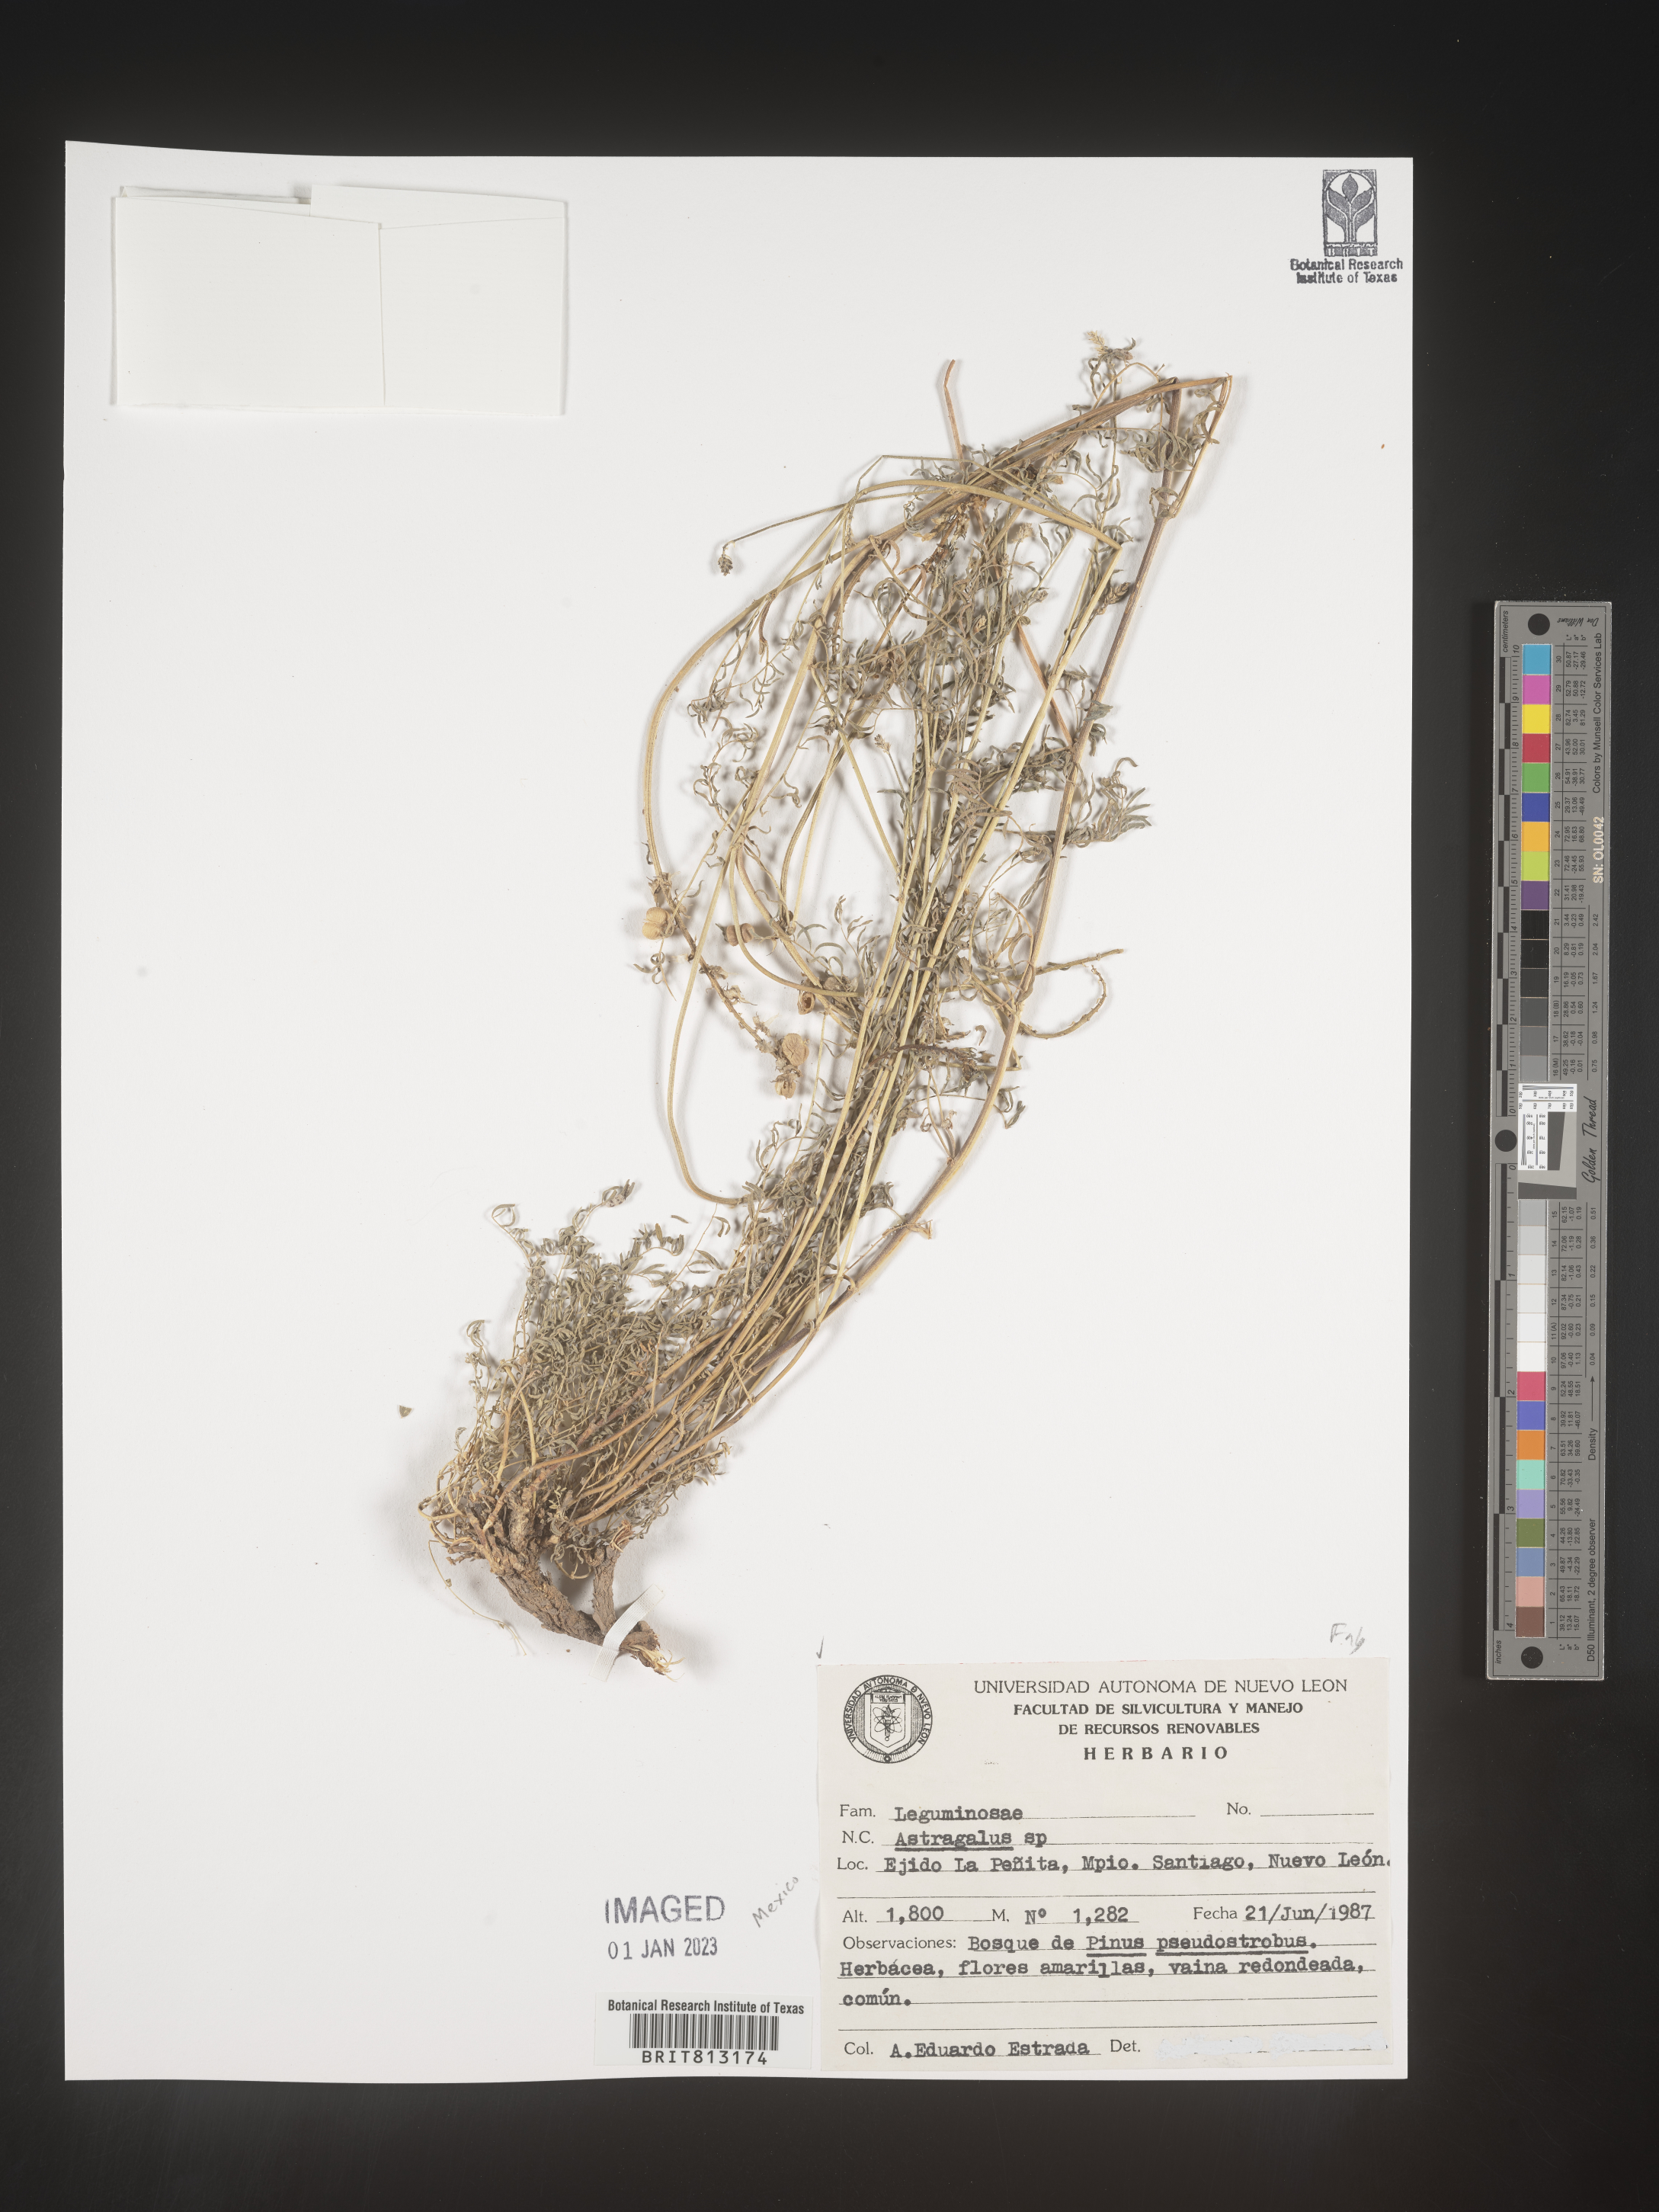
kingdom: Plantae
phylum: Tracheophyta
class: Magnoliopsida
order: Fabales
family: Fabaceae
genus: Astragalus
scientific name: Astragalus
